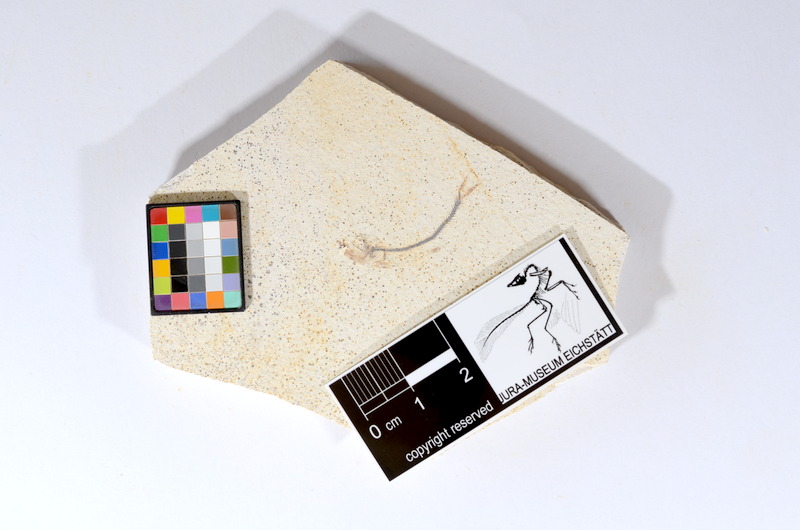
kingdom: Animalia
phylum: Chordata
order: Salmoniformes
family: Orthogonikleithridae
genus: Orthogonikleithrus
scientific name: Orthogonikleithrus hoelli
